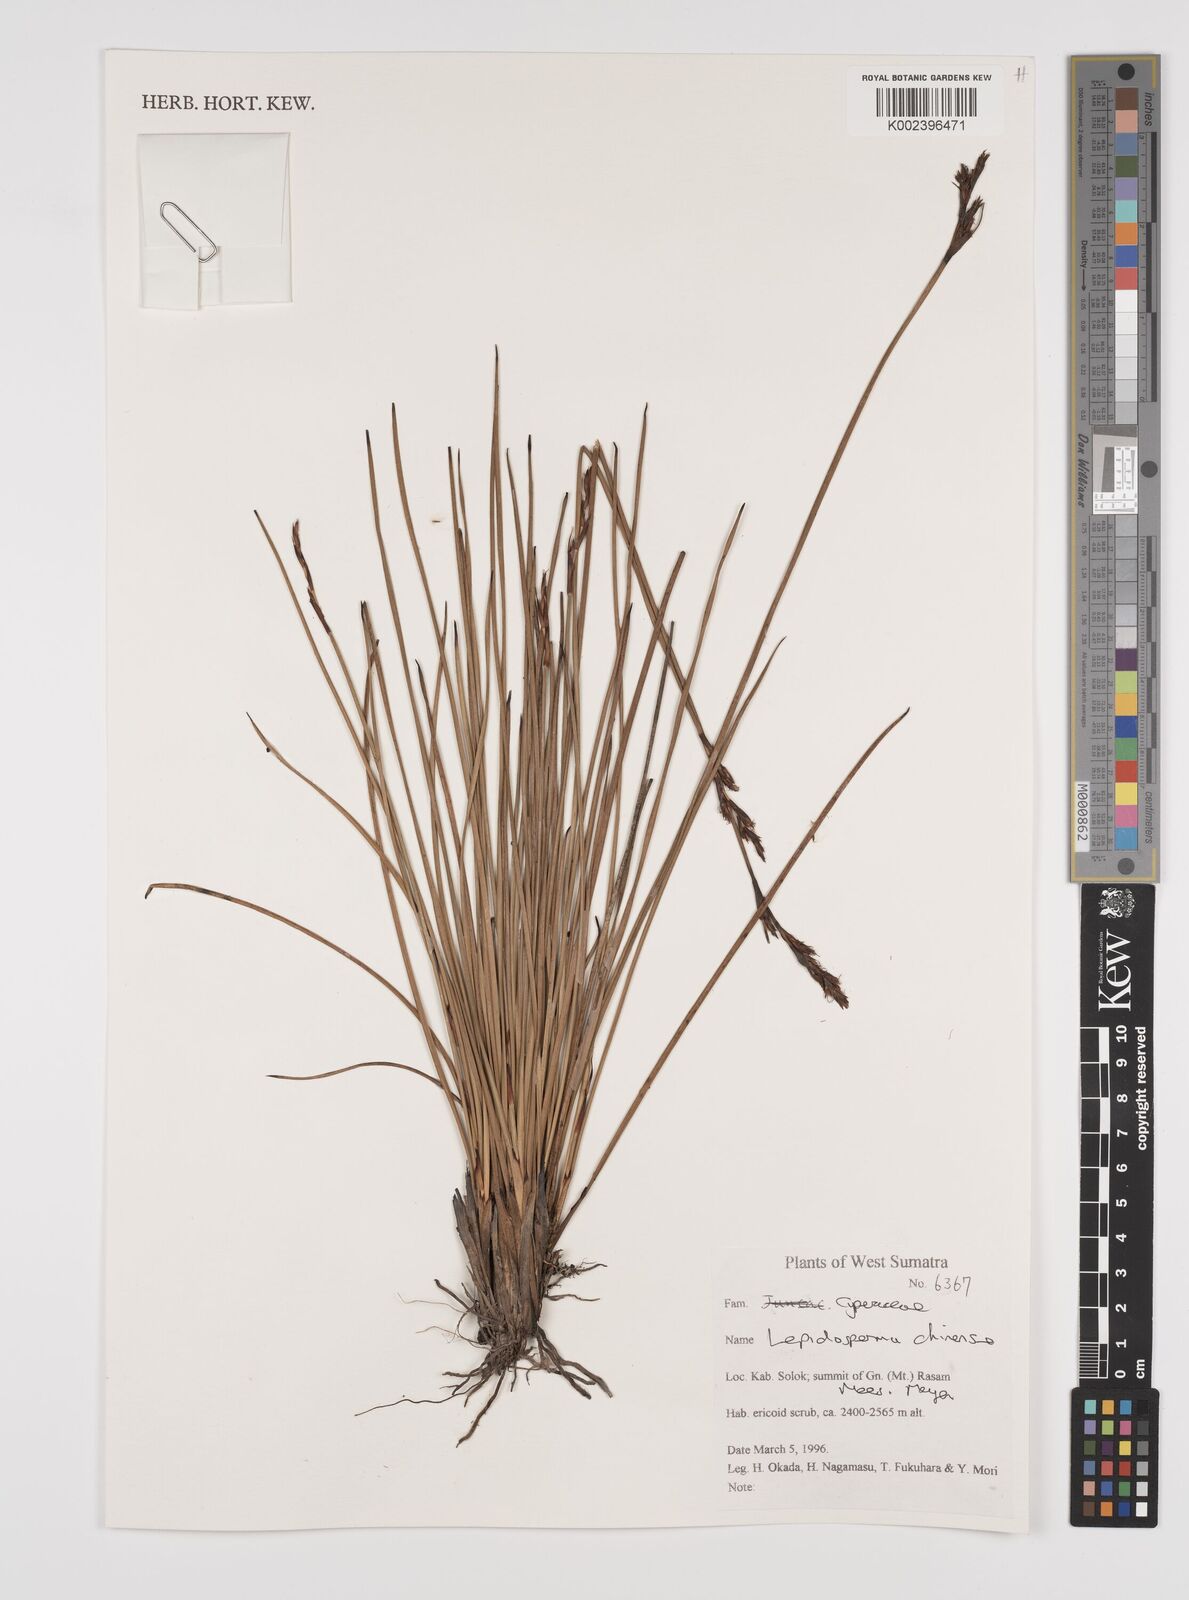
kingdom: Plantae
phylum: Tracheophyta
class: Liliopsida
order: Poales
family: Cyperaceae
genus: Lepidosperma
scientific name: Lepidosperma chinense
